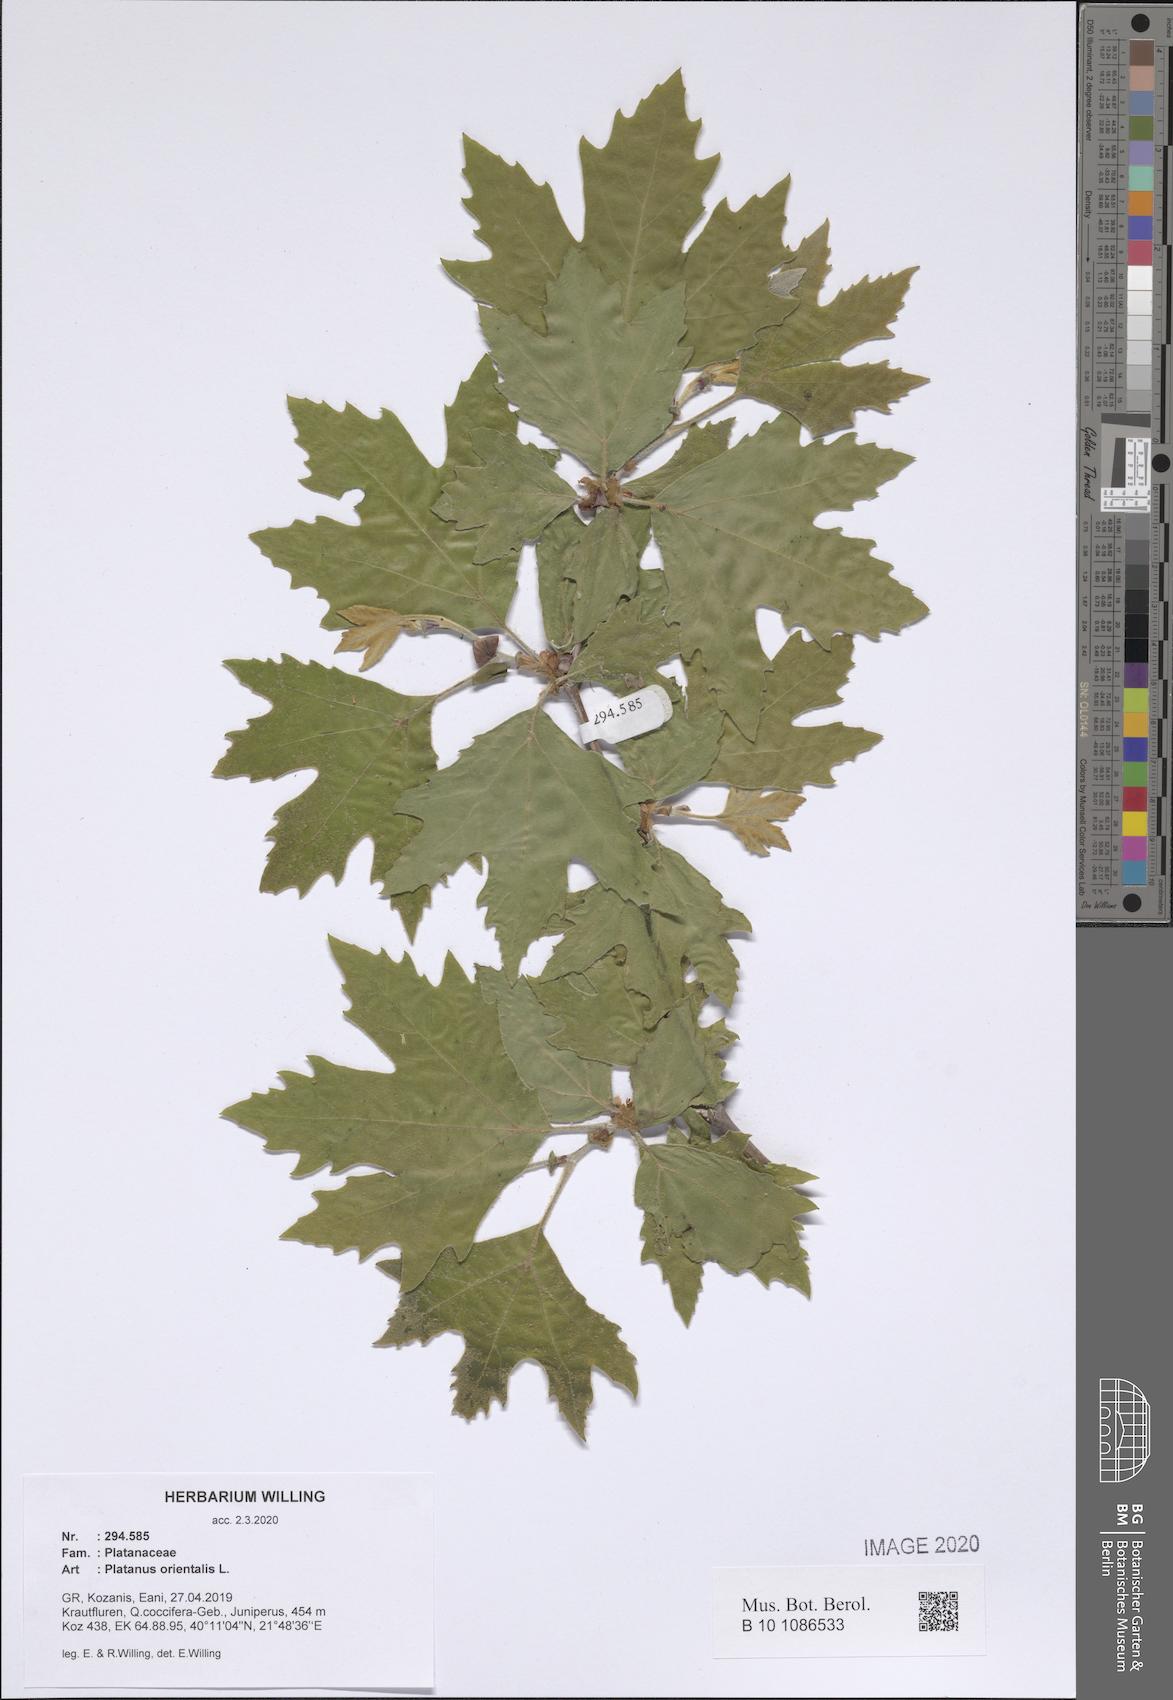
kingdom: Plantae
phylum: Tracheophyta
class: Magnoliopsida
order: Proteales
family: Platanaceae
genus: Platanus
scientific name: Platanus orientalis
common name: Oriental plane
